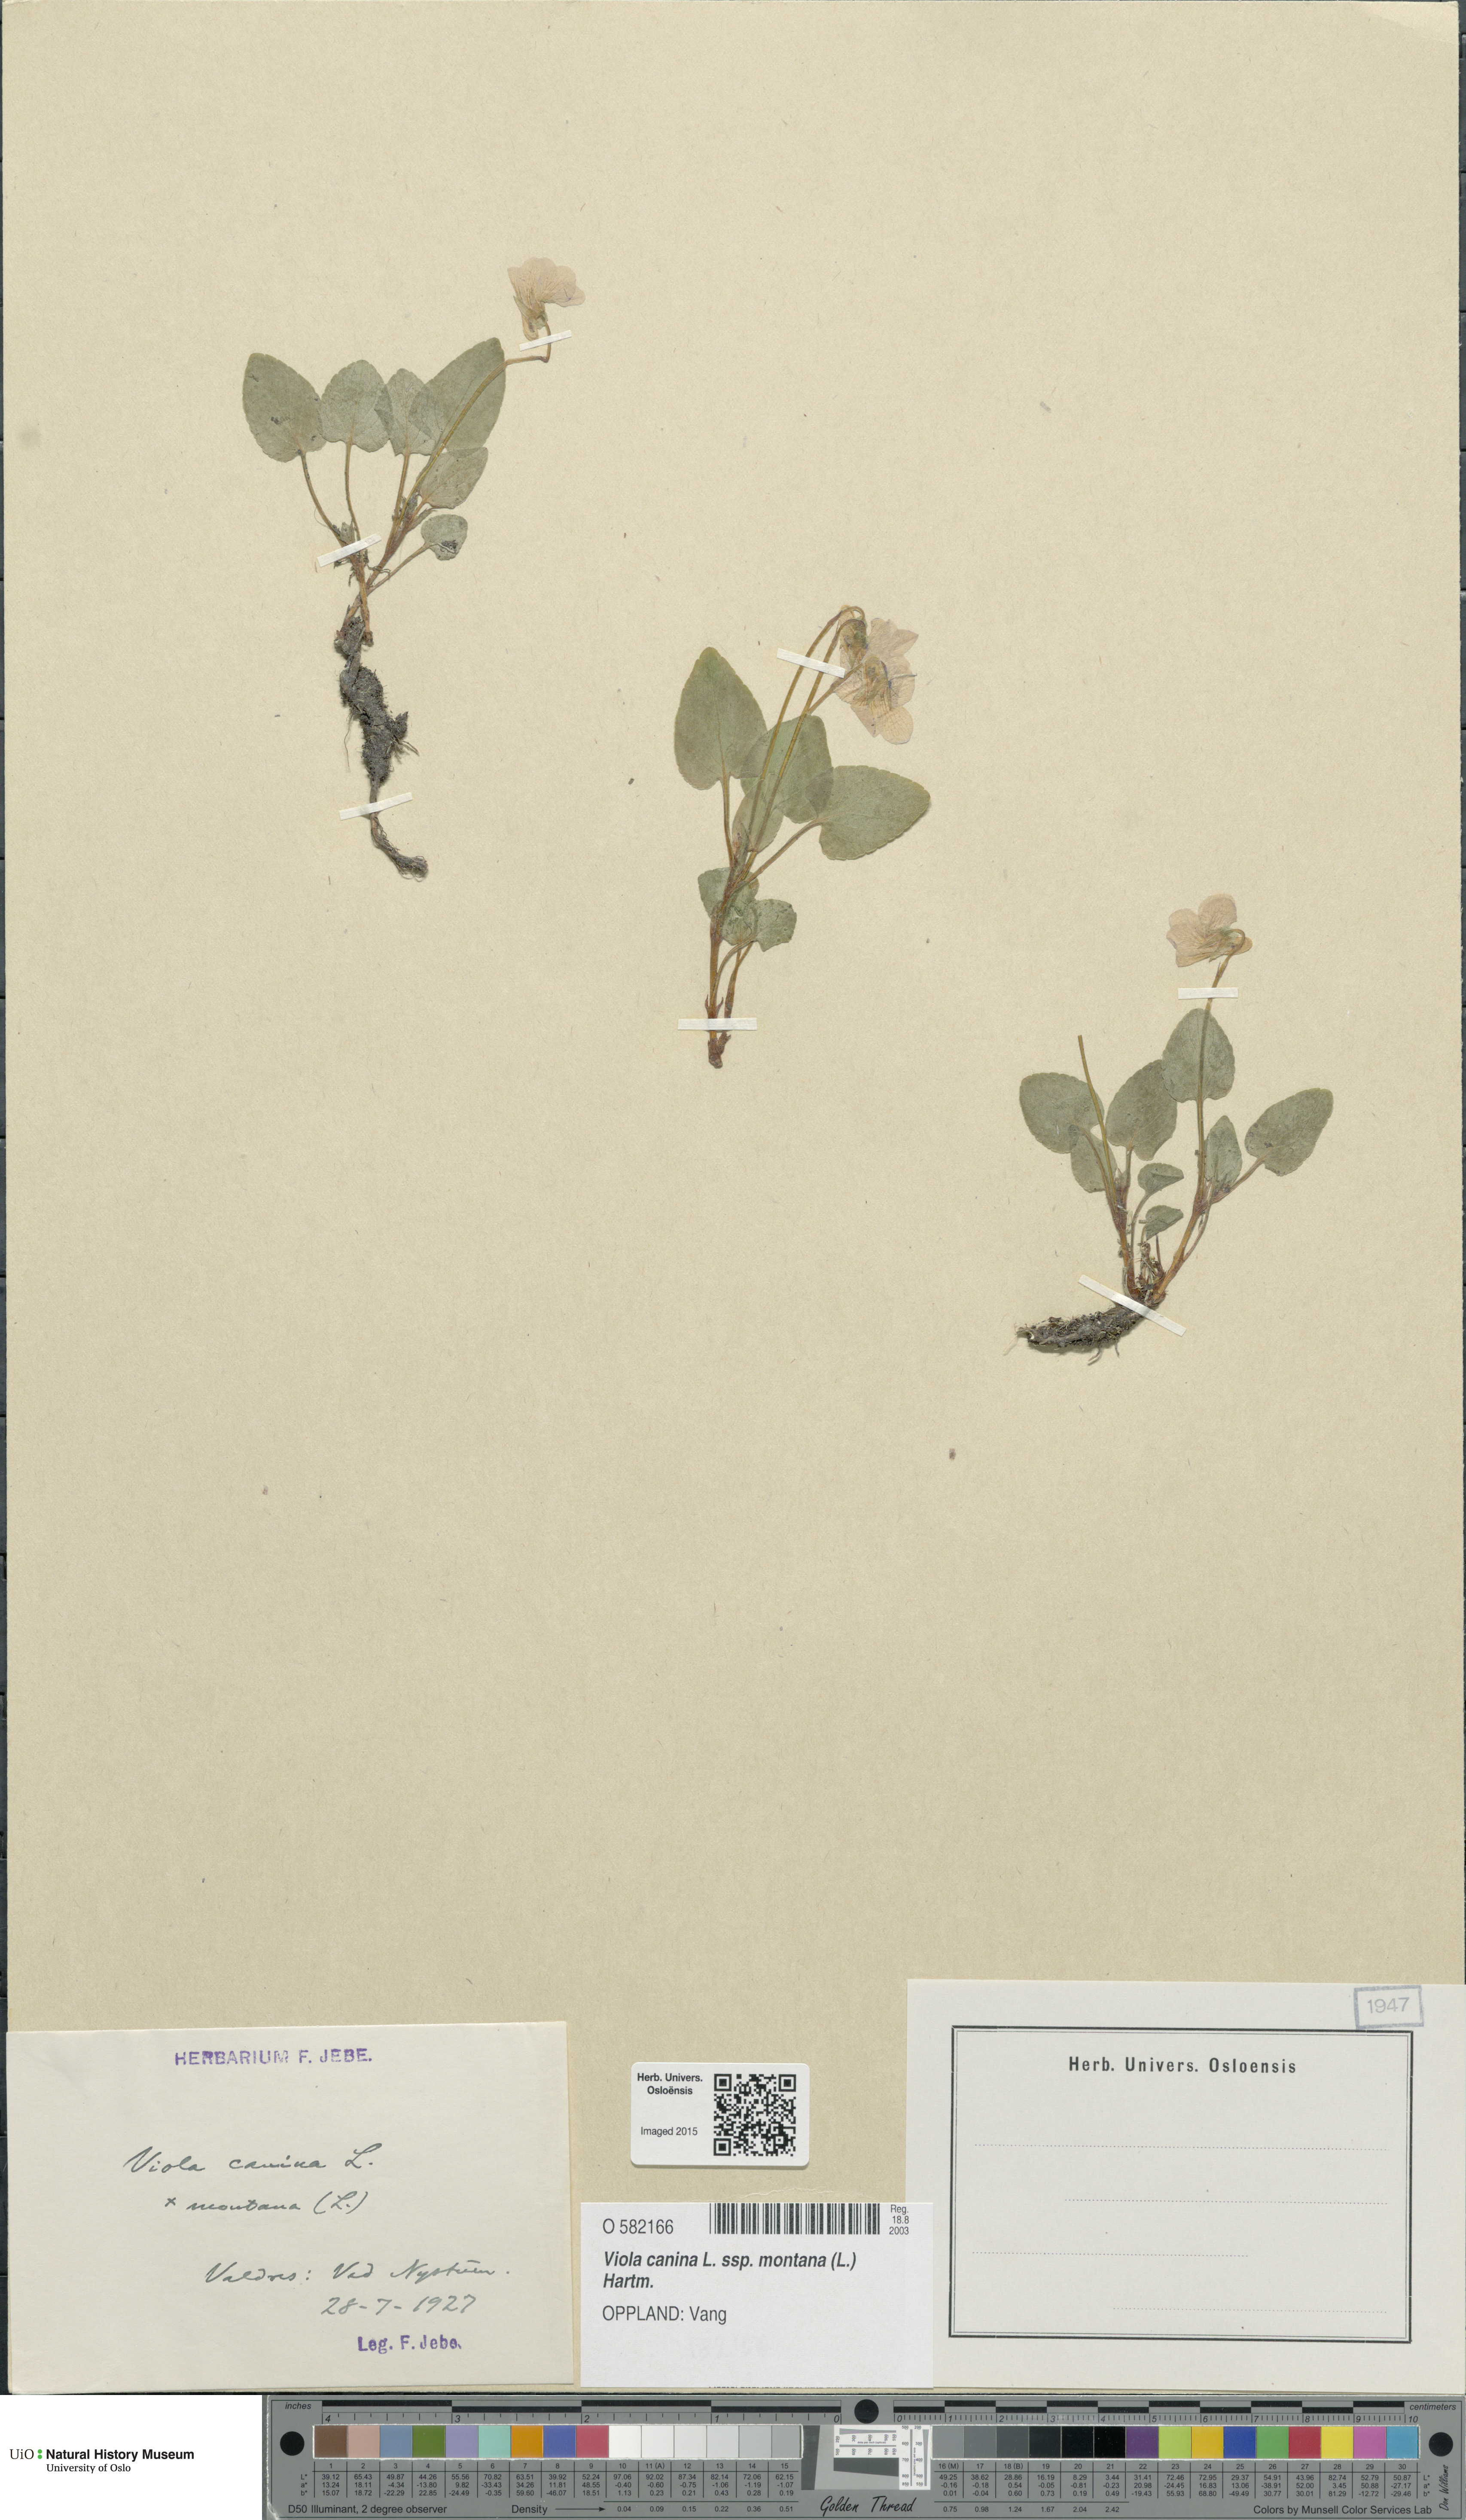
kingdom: Plantae
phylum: Tracheophyta
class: Magnoliopsida
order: Malpighiales
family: Violaceae
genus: Viola
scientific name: Viola ruppii
